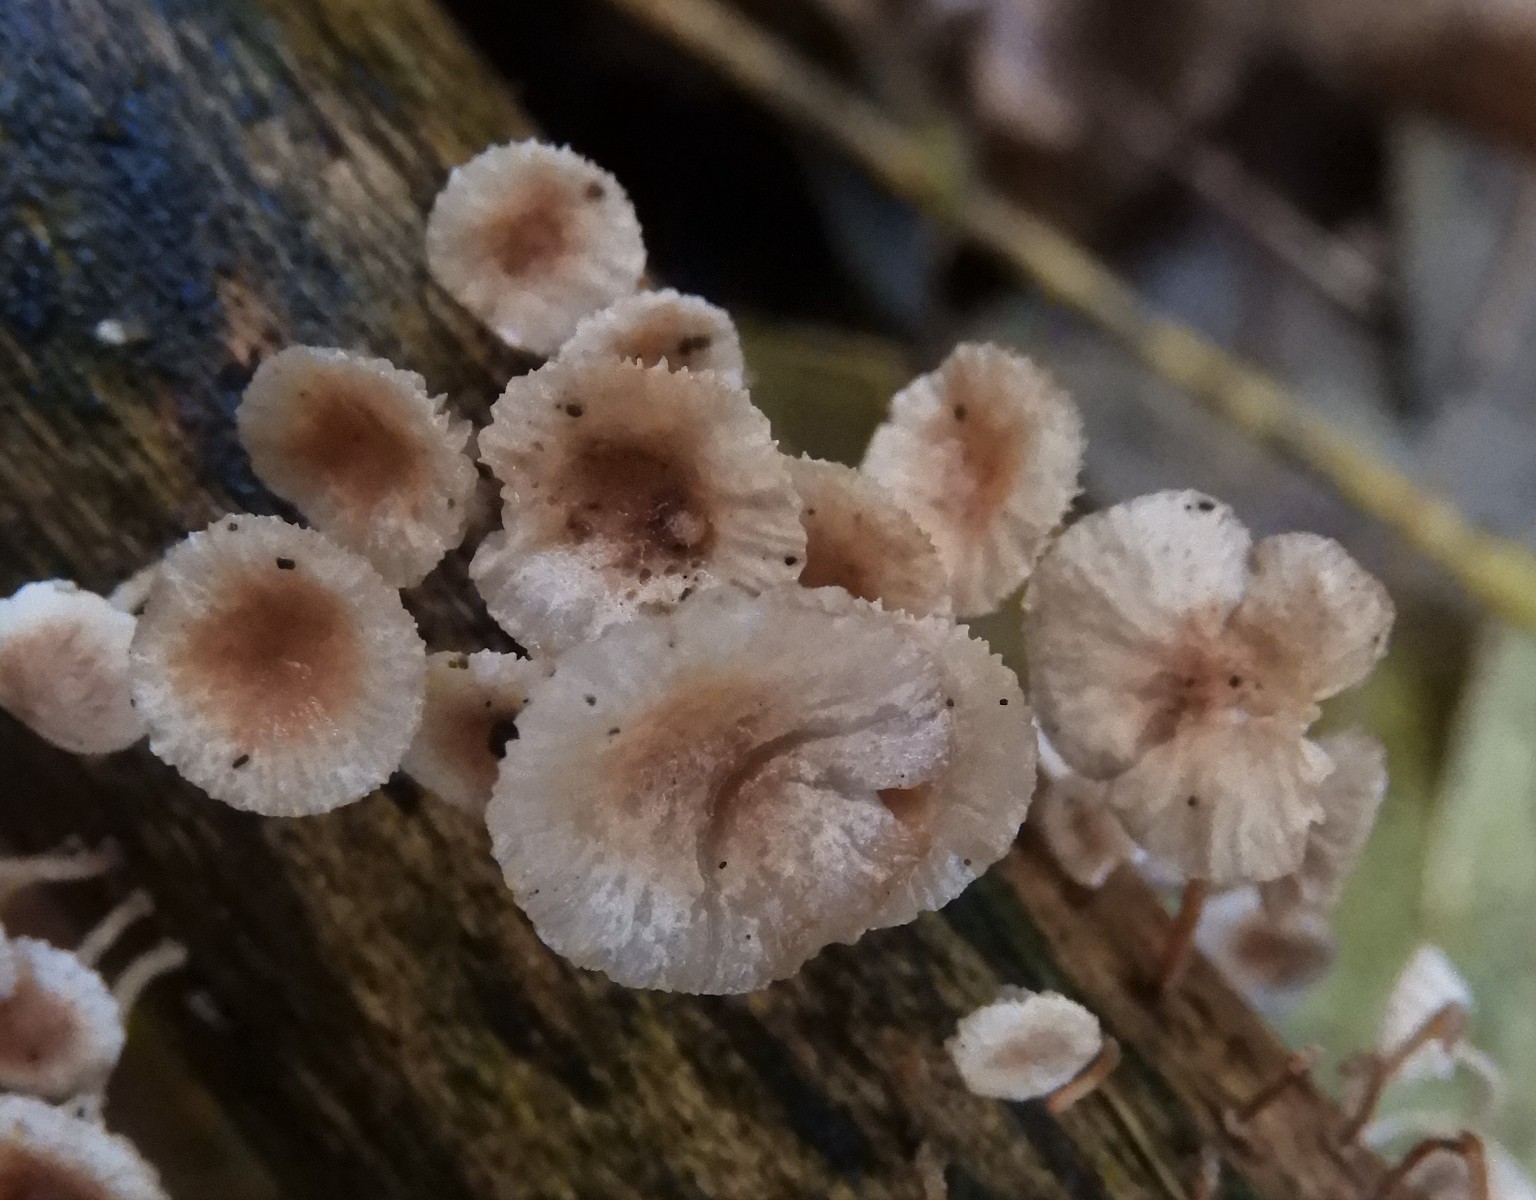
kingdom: Fungi
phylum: Basidiomycota
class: Agaricomycetes
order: Agaricales
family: Omphalotaceae
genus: Collybiopsis
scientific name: Collybiopsis ramealis
